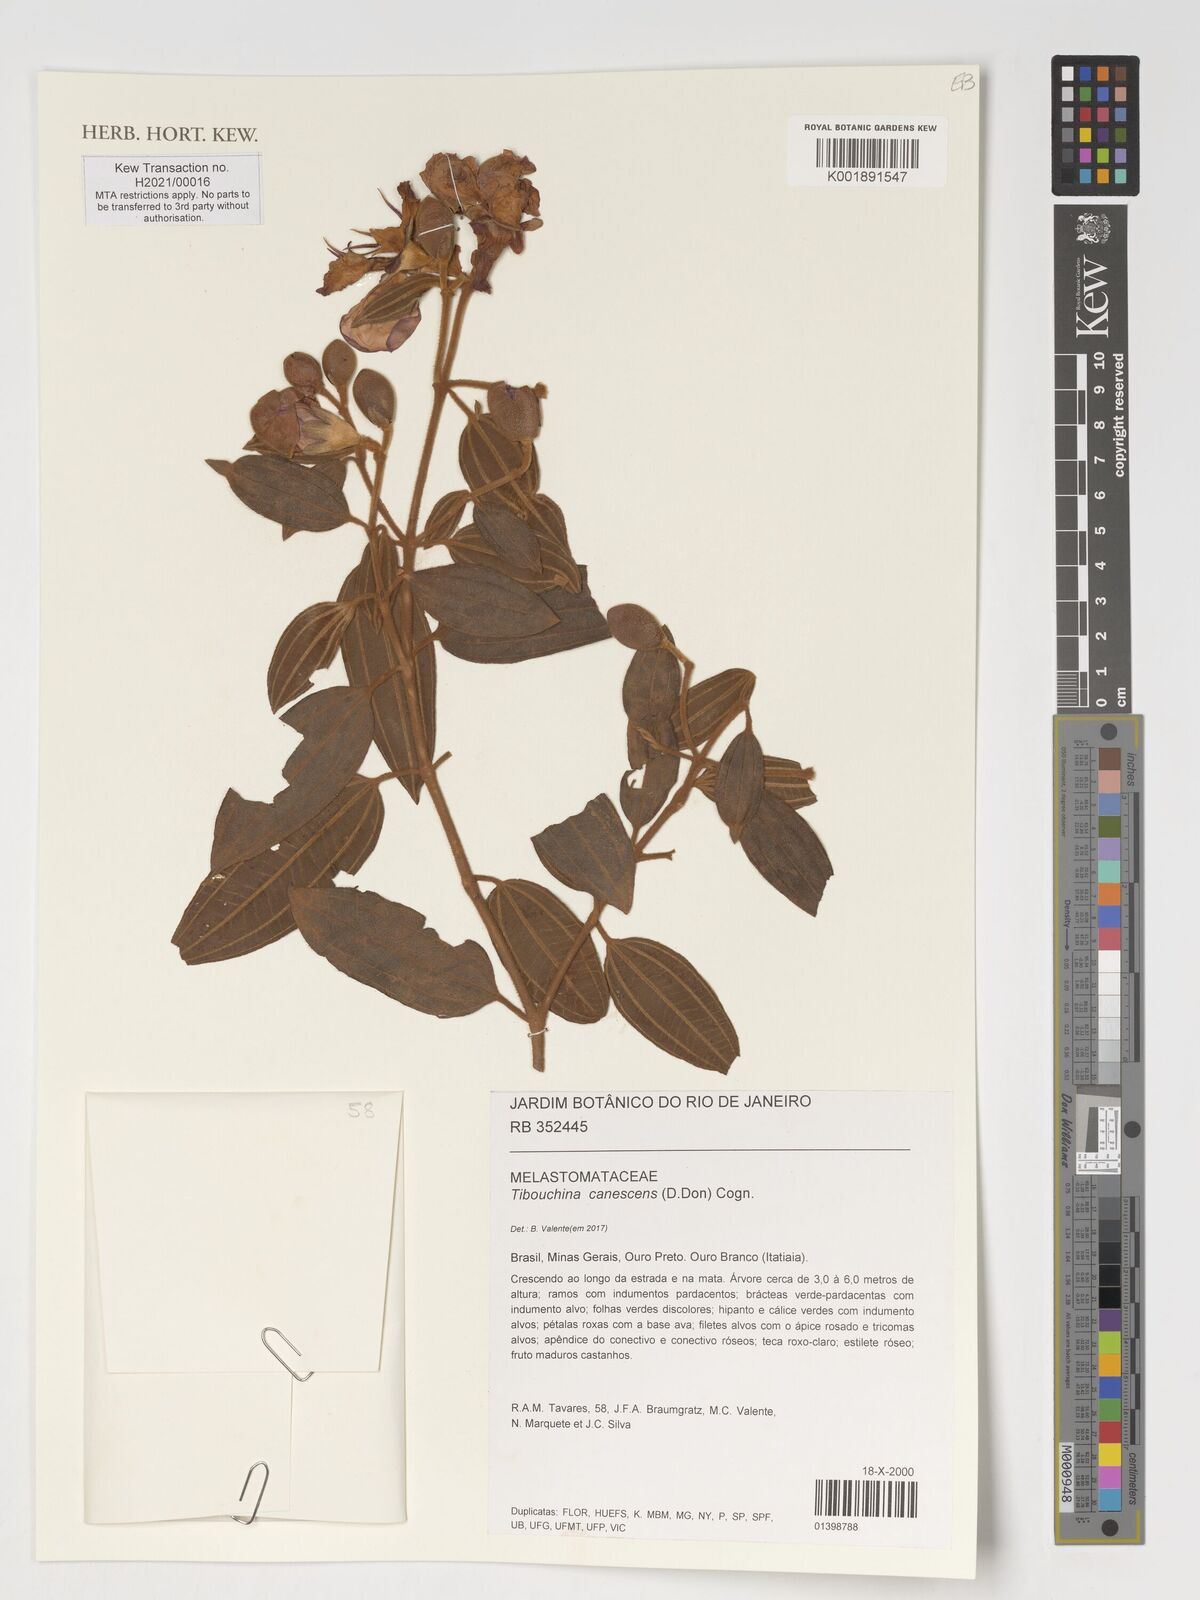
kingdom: Plantae
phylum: Tracheophyta
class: Magnoliopsida
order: Myrtales
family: Melastomataceae
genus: Pleroma
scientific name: Pleroma canescens
